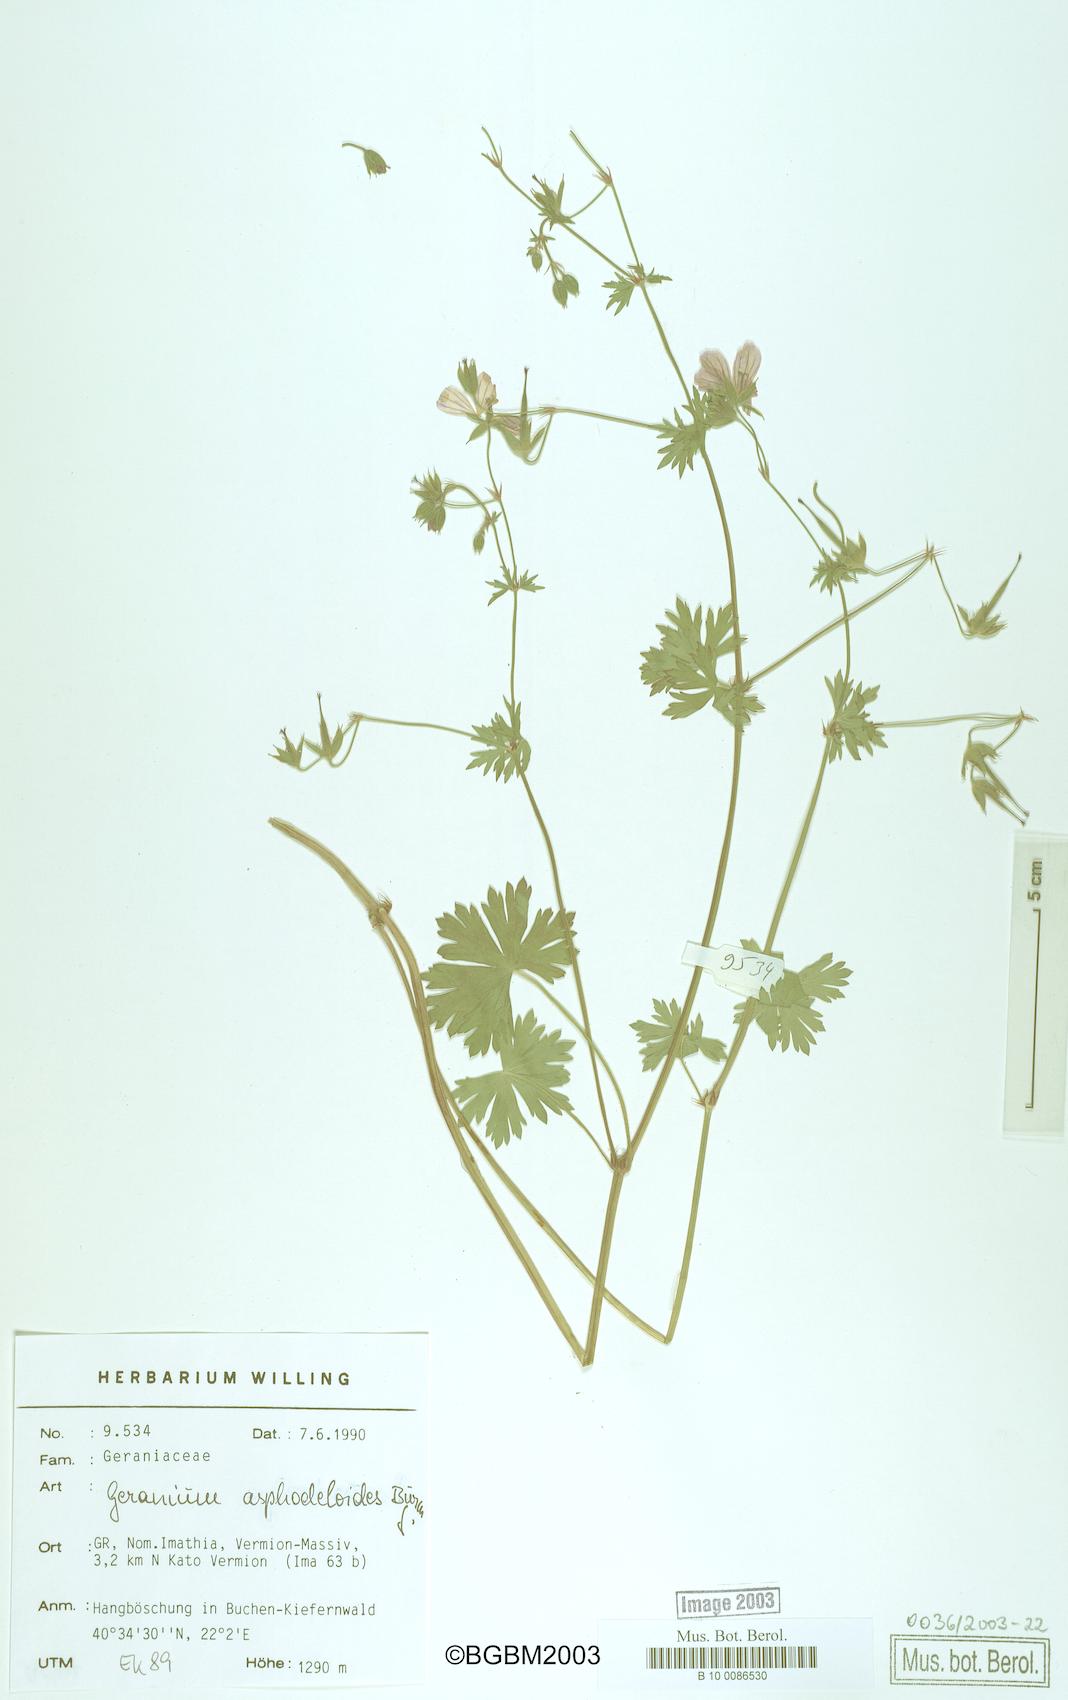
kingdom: Plantae
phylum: Tracheophyta
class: Magnoliopsida
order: Geraniales
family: Geraniaceae
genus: Geranium
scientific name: Geranium asphodeloides
